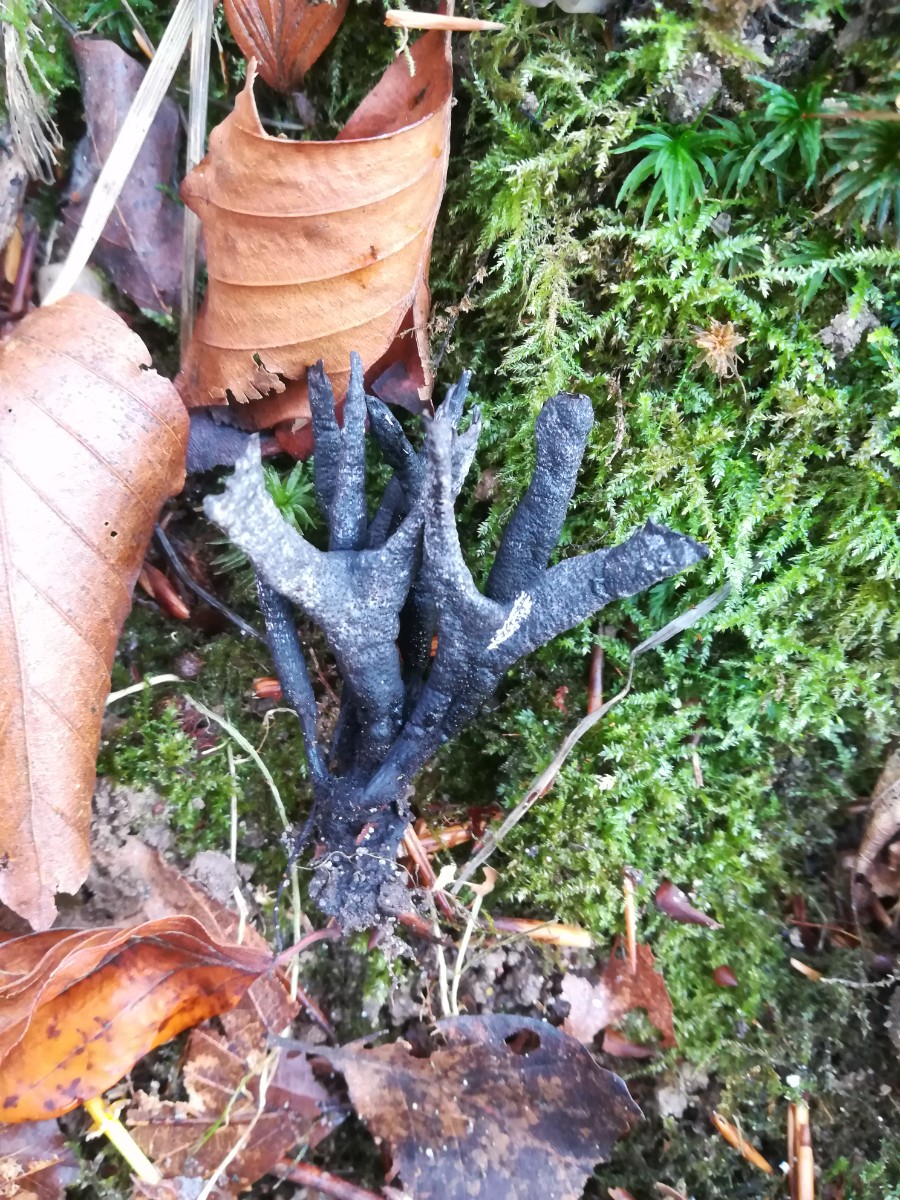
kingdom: Fungi
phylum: Ascomycota
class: Sordariomycetes
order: Xylariales
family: Xylariaceae
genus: Xylaria
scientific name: Xylaria hypoxylon
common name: grenet stødsvamp
